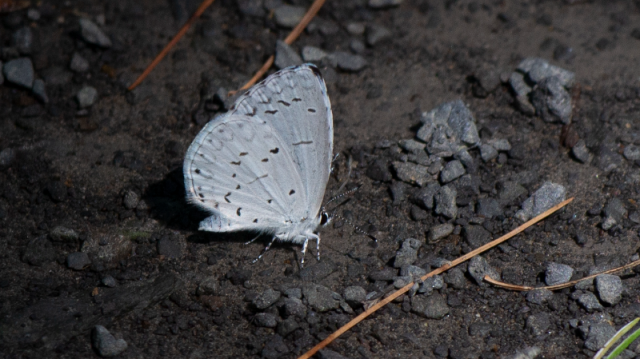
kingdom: Animalia
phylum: Arthropoda
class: Insecta
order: Lepidoptera
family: Lycaenidae
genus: Cyaniris
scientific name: Cyaniris neglecta
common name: Summer Azure
